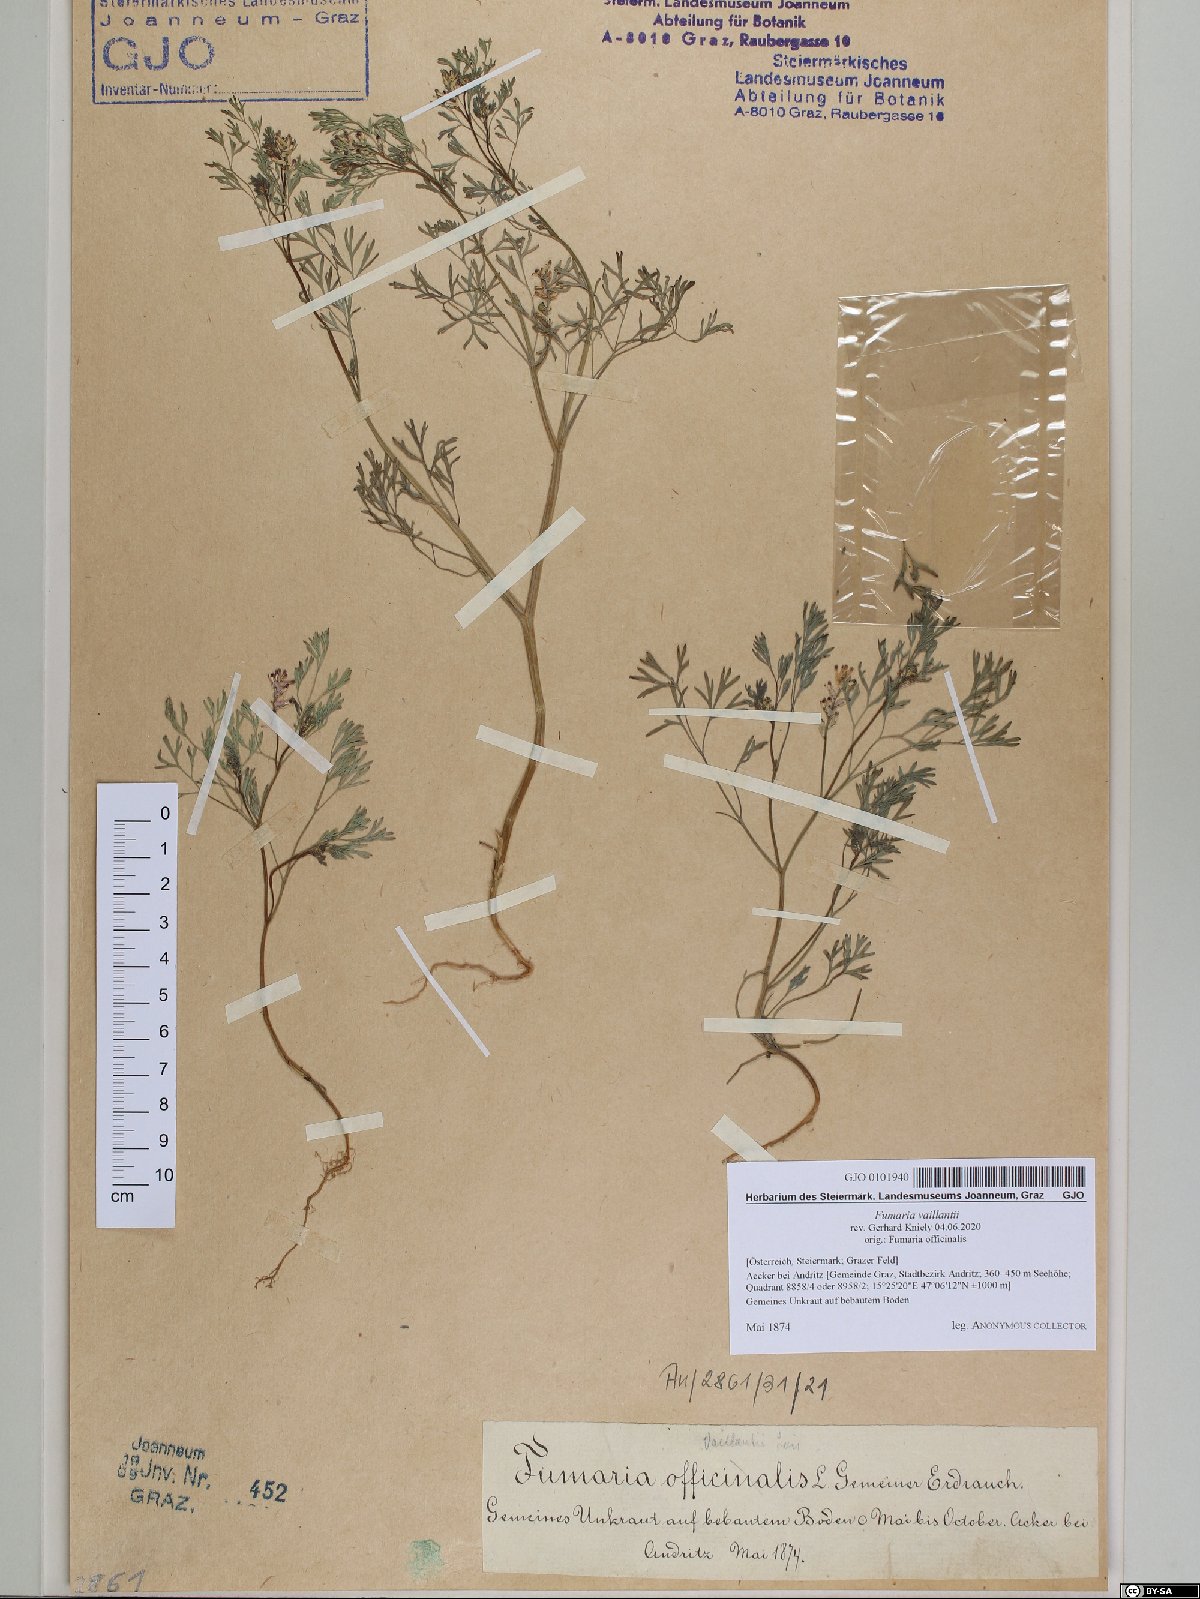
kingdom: Plantae
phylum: Tracheophyta
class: Magnoliopsida
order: Ranunculales
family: Papaveraceae
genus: Fumaria
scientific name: Fumaria vaillantii
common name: Few-flowered fumitory
